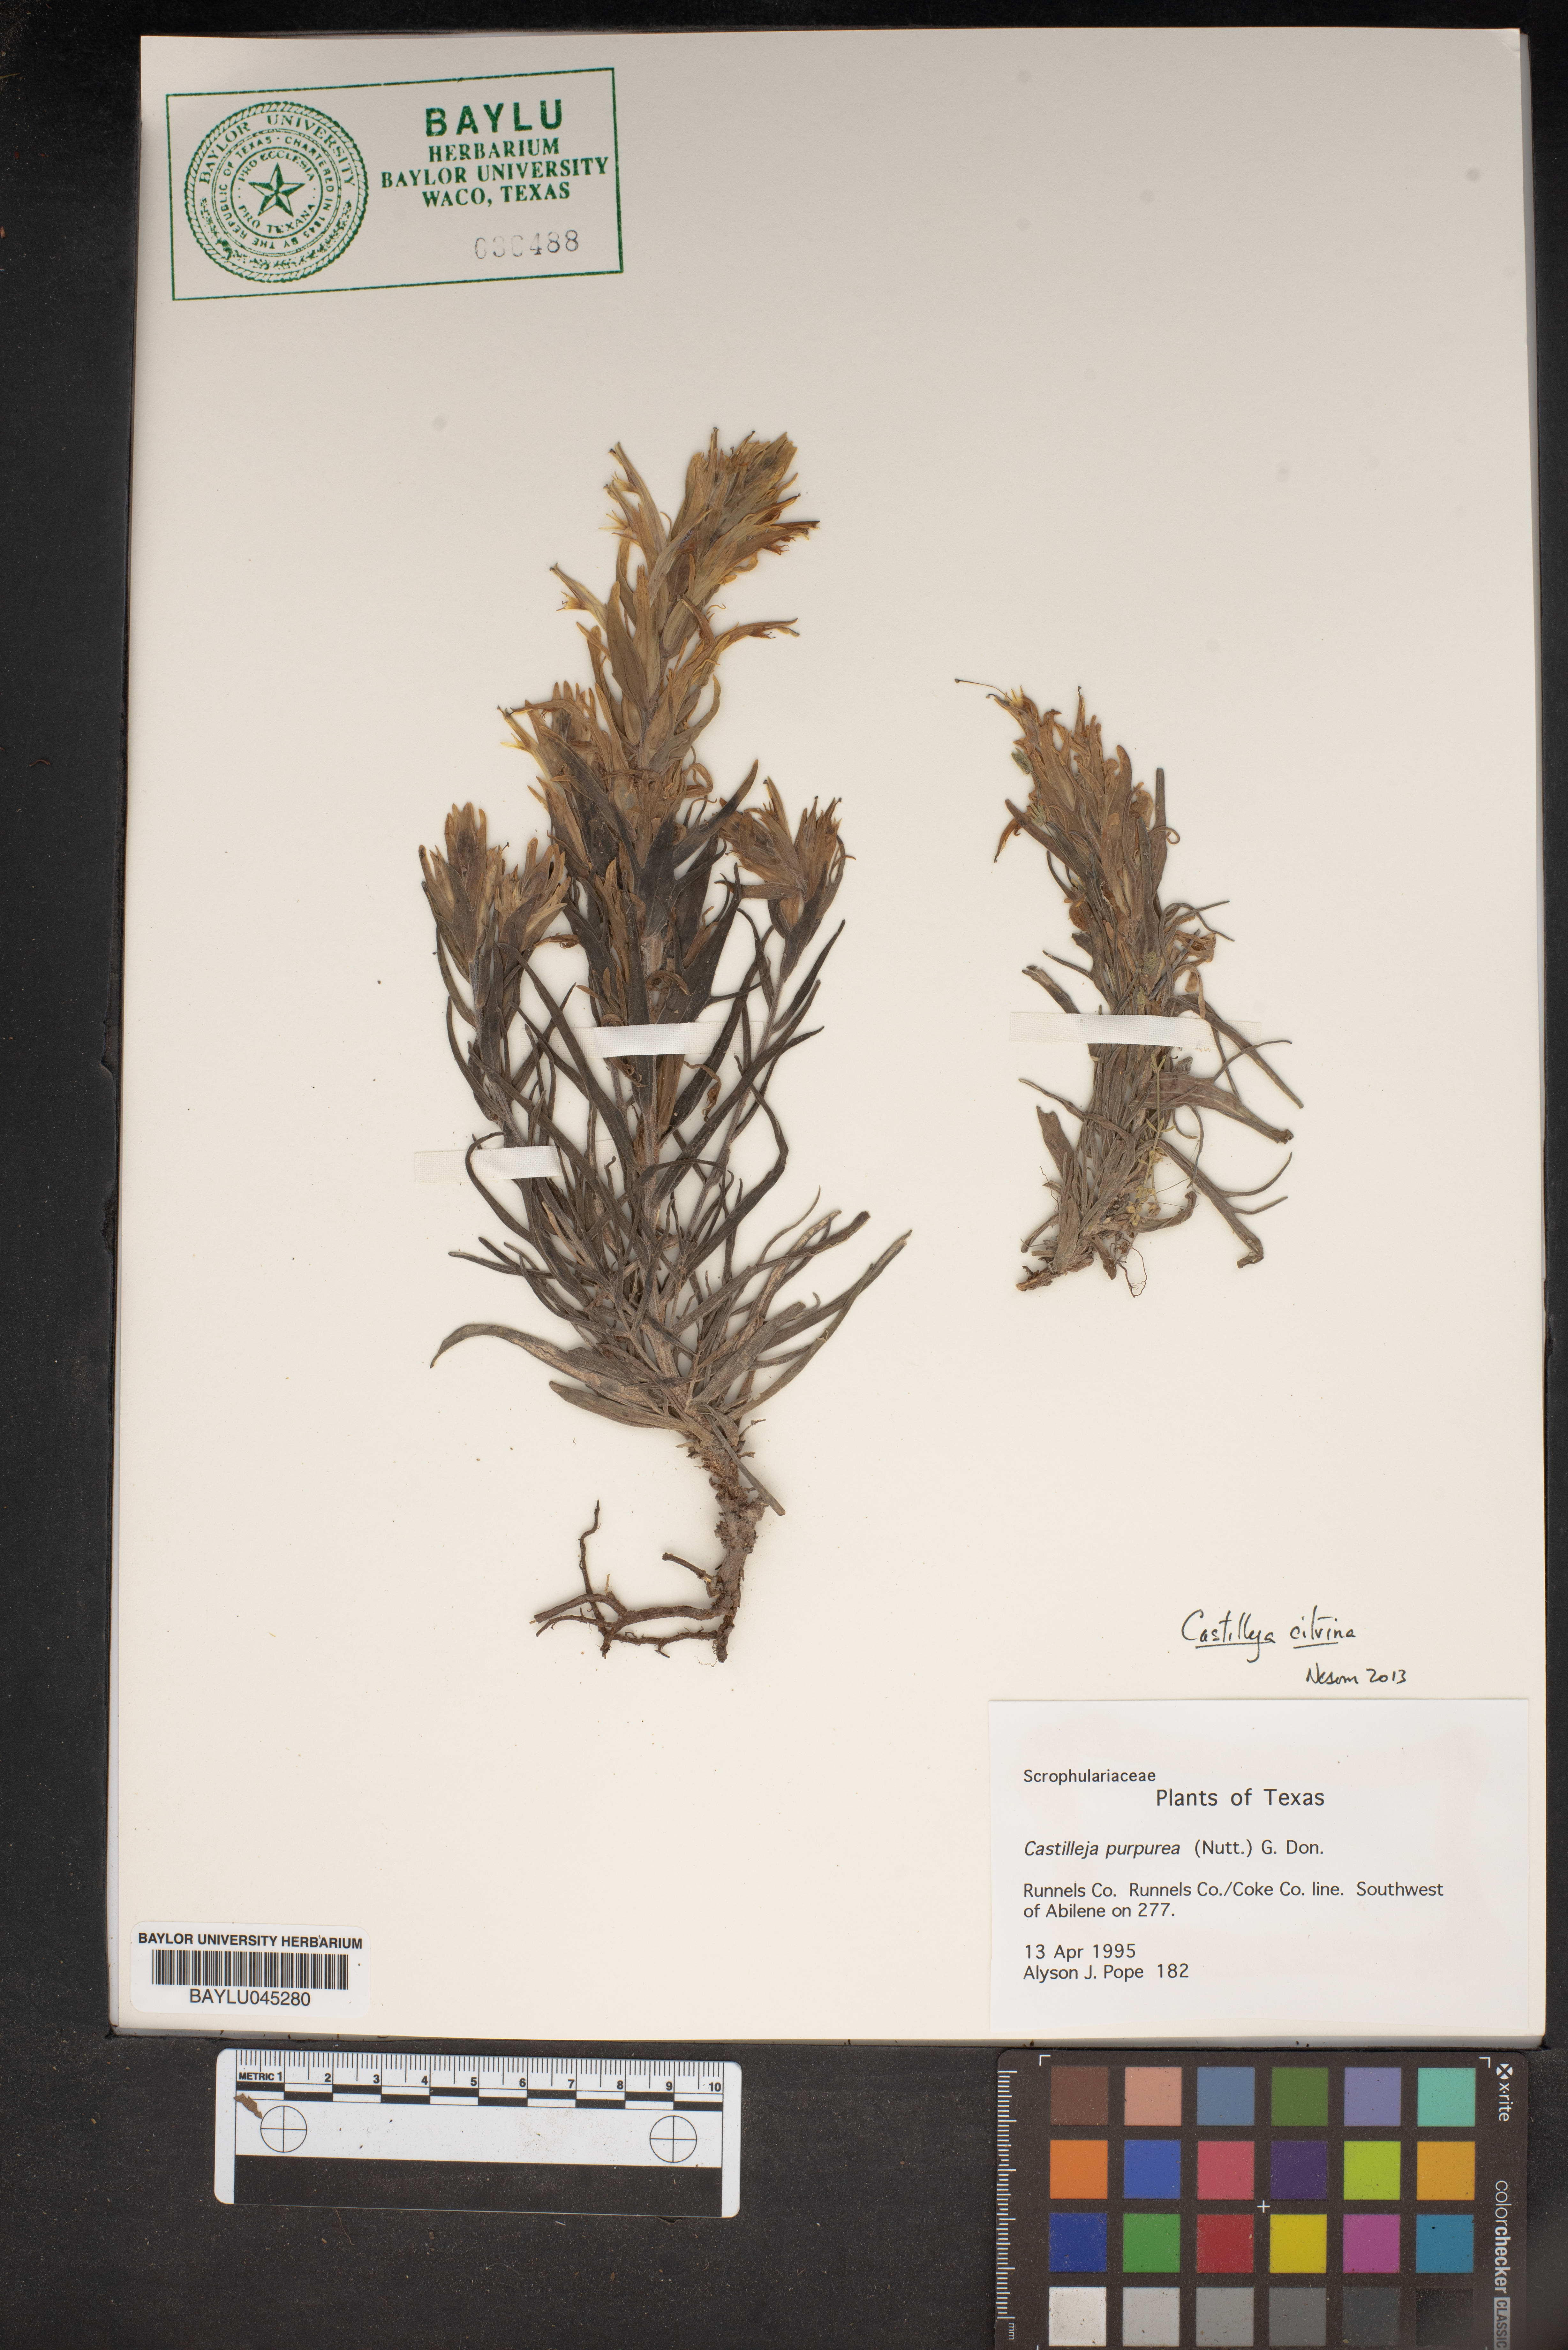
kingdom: Plantae
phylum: Tracheophyta
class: Magnoliopsida
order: Lamiales
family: Orobanchaceae
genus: Castilleja
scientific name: Castilleja purpurea
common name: Plains paintbrush
